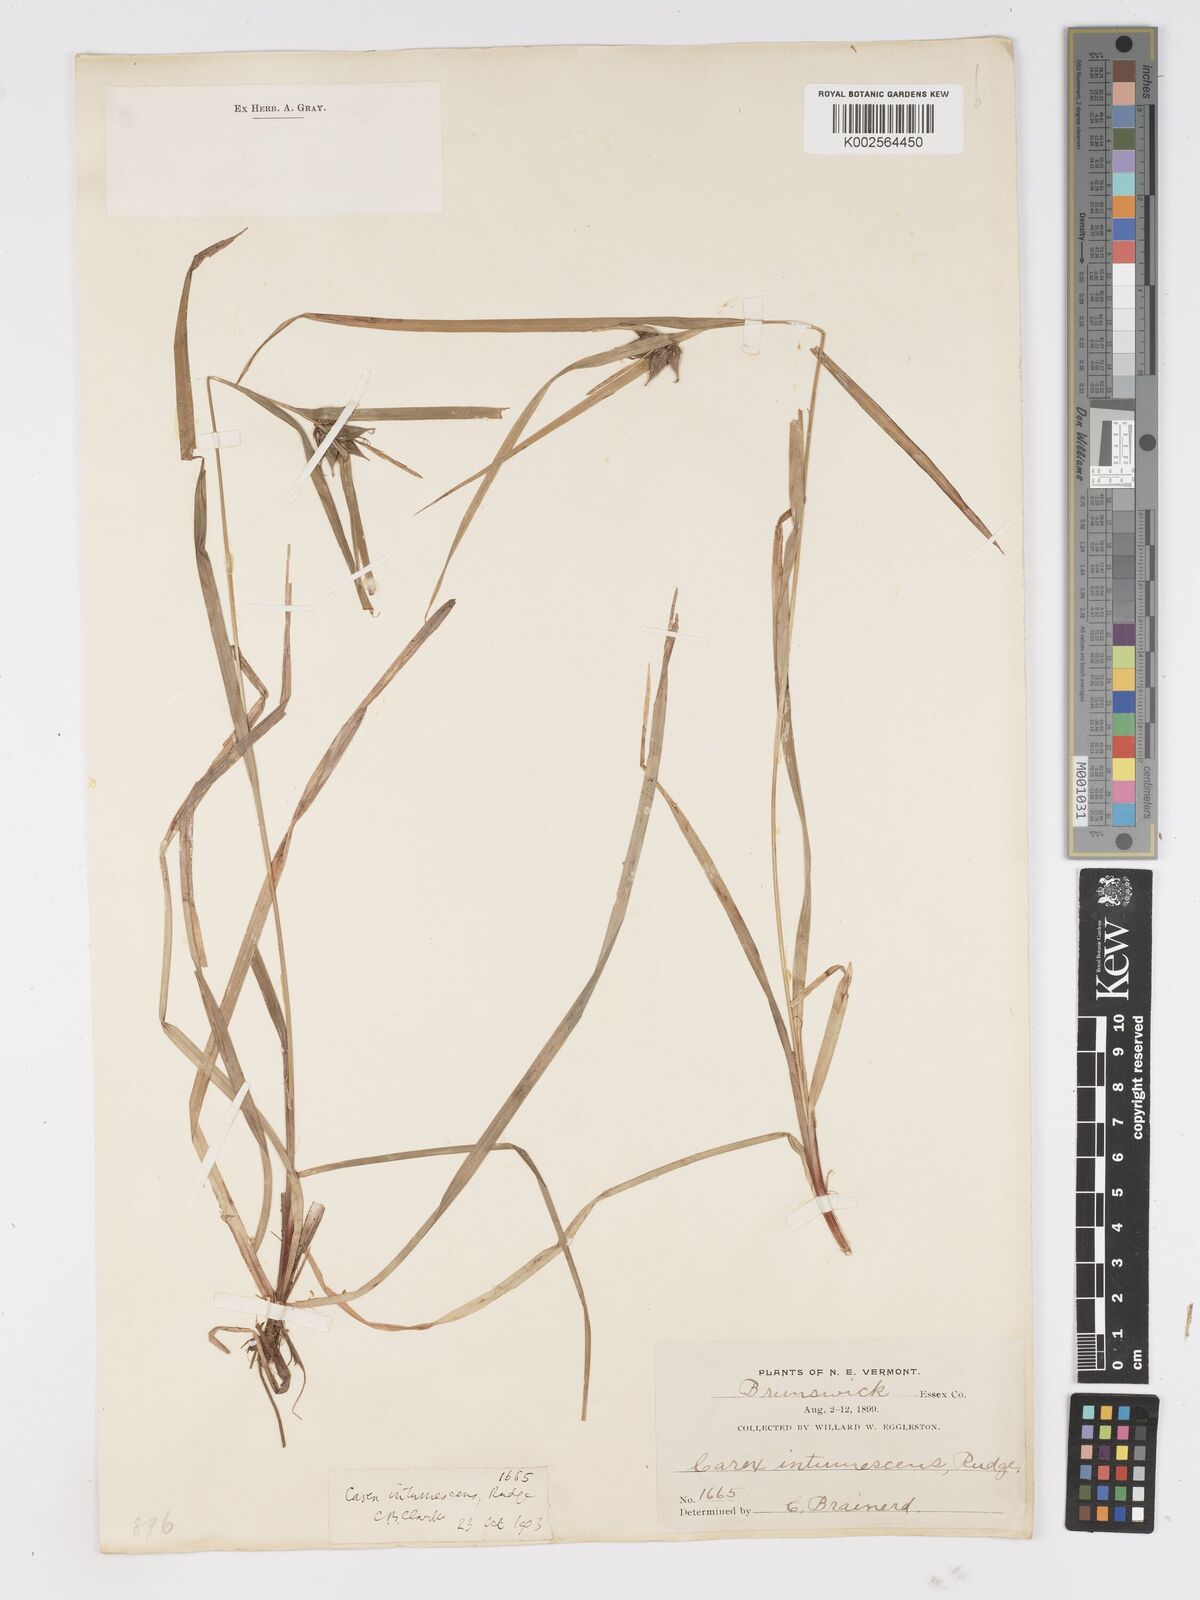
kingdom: Plantae
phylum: Tracheophyta
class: Liliopsida
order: Poales
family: Cyperaceae
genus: Carex
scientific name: Carex intumescens
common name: Greater bladder sedge
